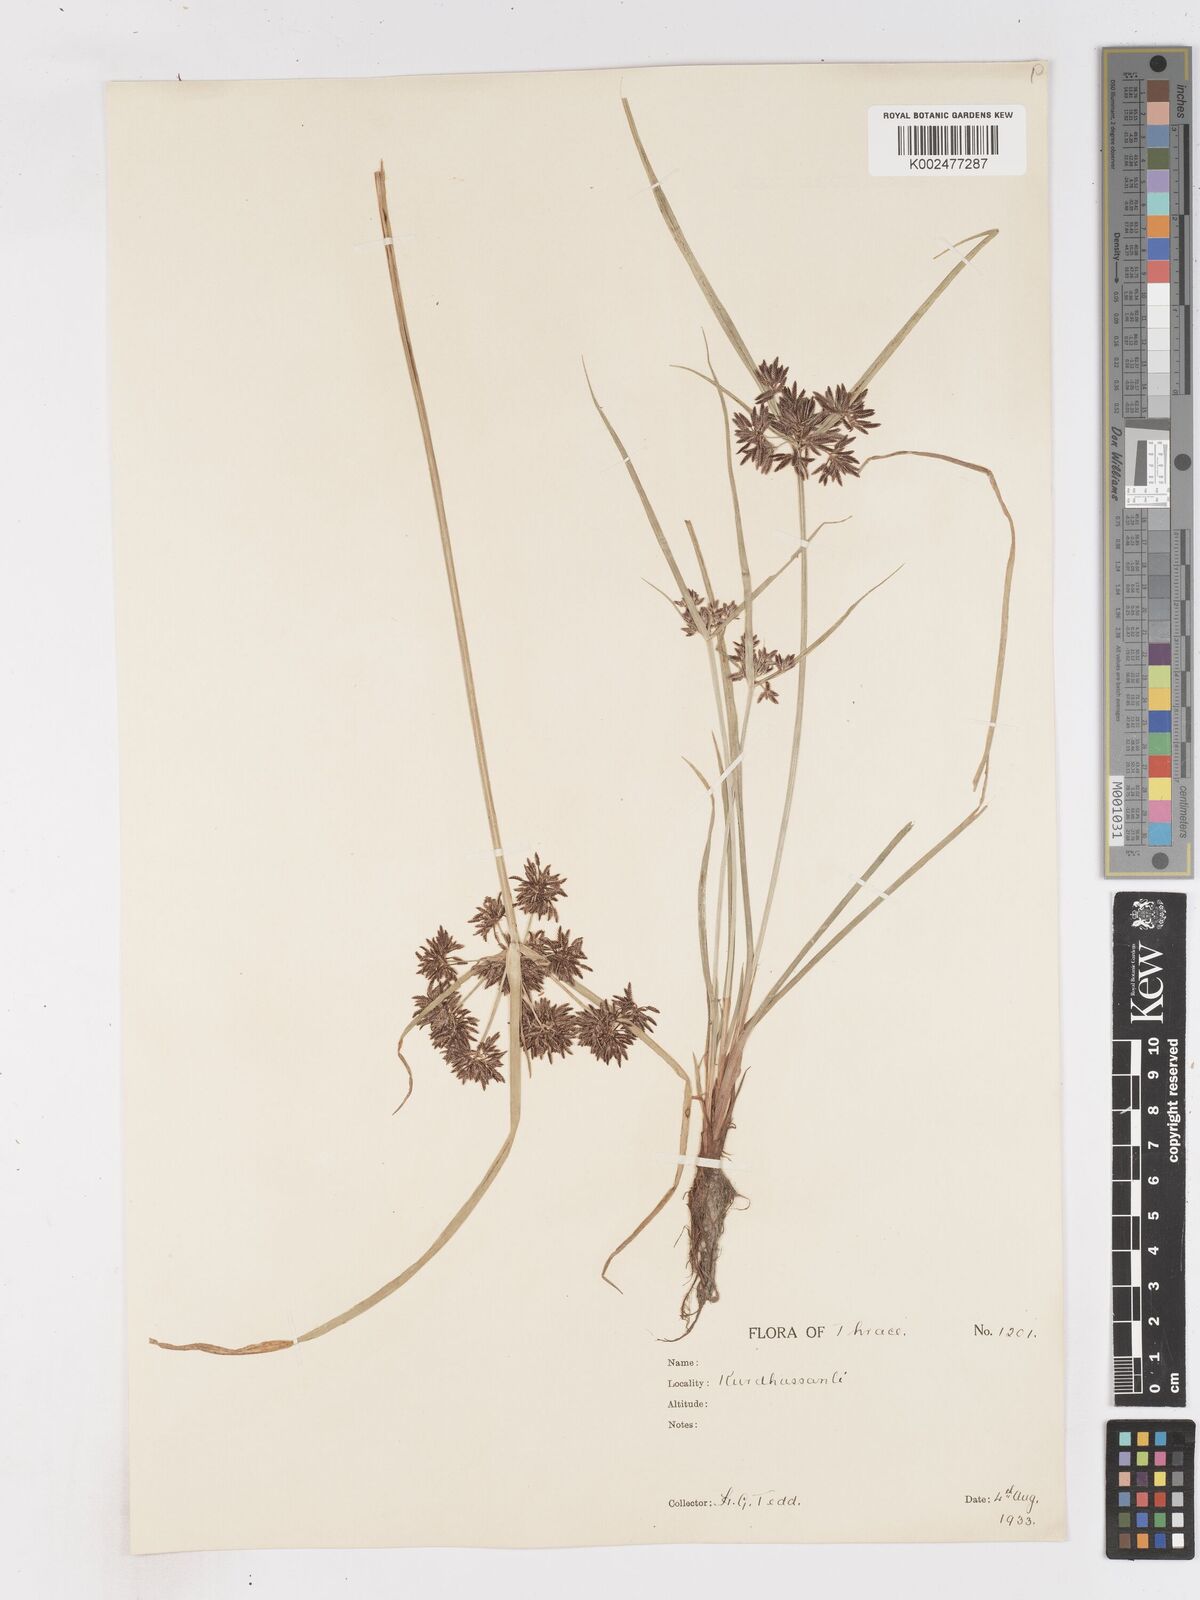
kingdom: Plantae
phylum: Tracheophyta
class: Liliopsida
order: Poales
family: Cyperaceae
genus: Cyperus
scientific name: Cyperus fuscus
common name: Brown galingale
